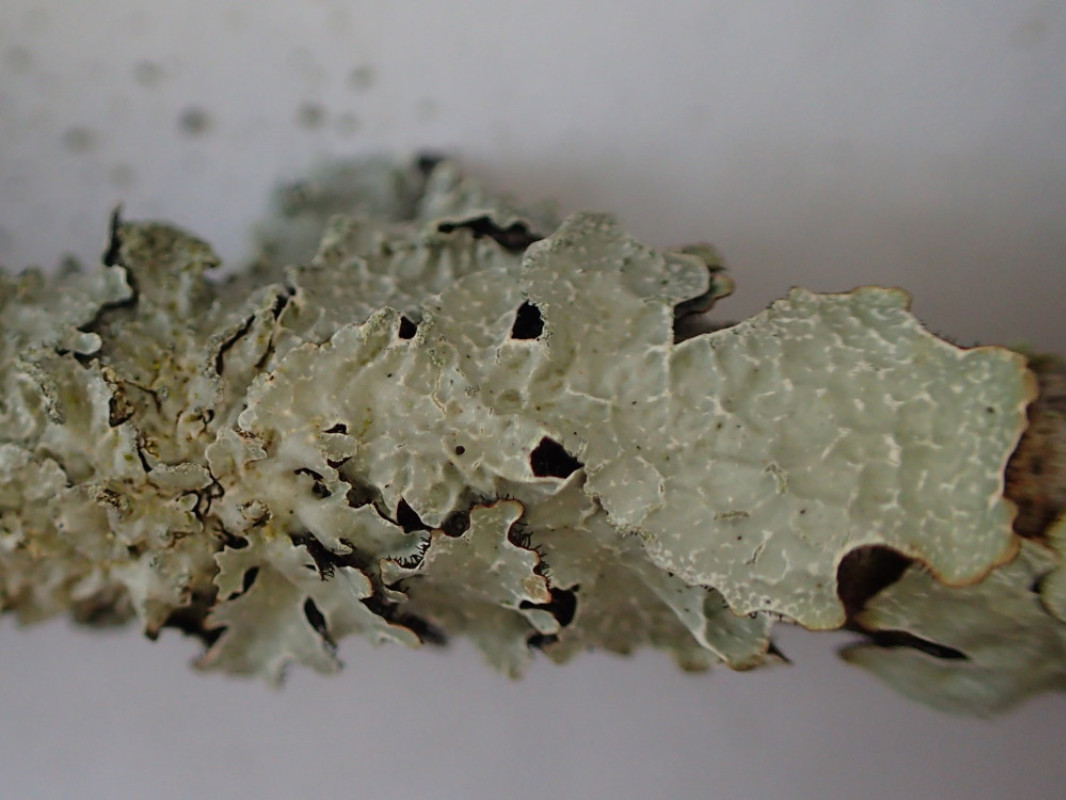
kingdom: Fungi
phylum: Ascomycota
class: Lecanoromycetes
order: Lecanorales
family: Parmeliaceae
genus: Parmelia
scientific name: Parmelia sulcata
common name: rynket skållav
